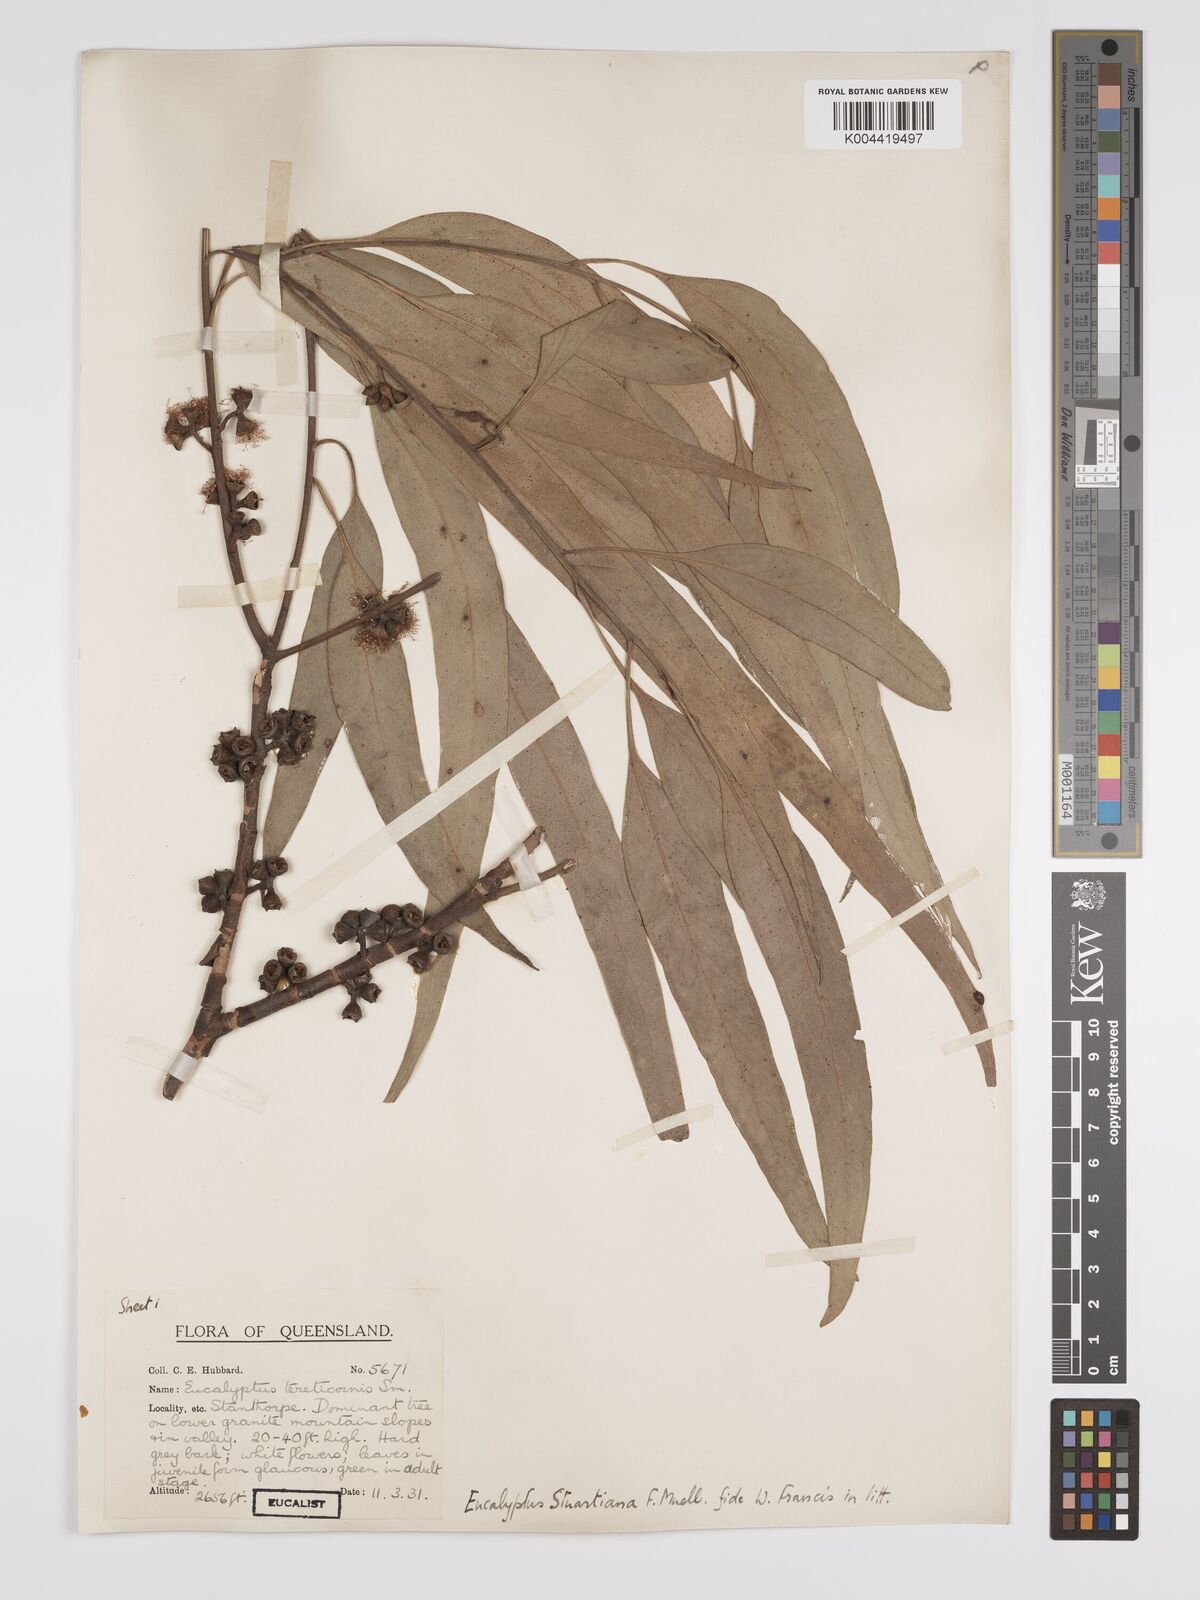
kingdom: Plantae
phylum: Tracheophyta
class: Magnoliopsida
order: Myrtales
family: Myrtaceae
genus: Eucalyptus
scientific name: Eucalyptus bridgesiana
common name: Applebox
